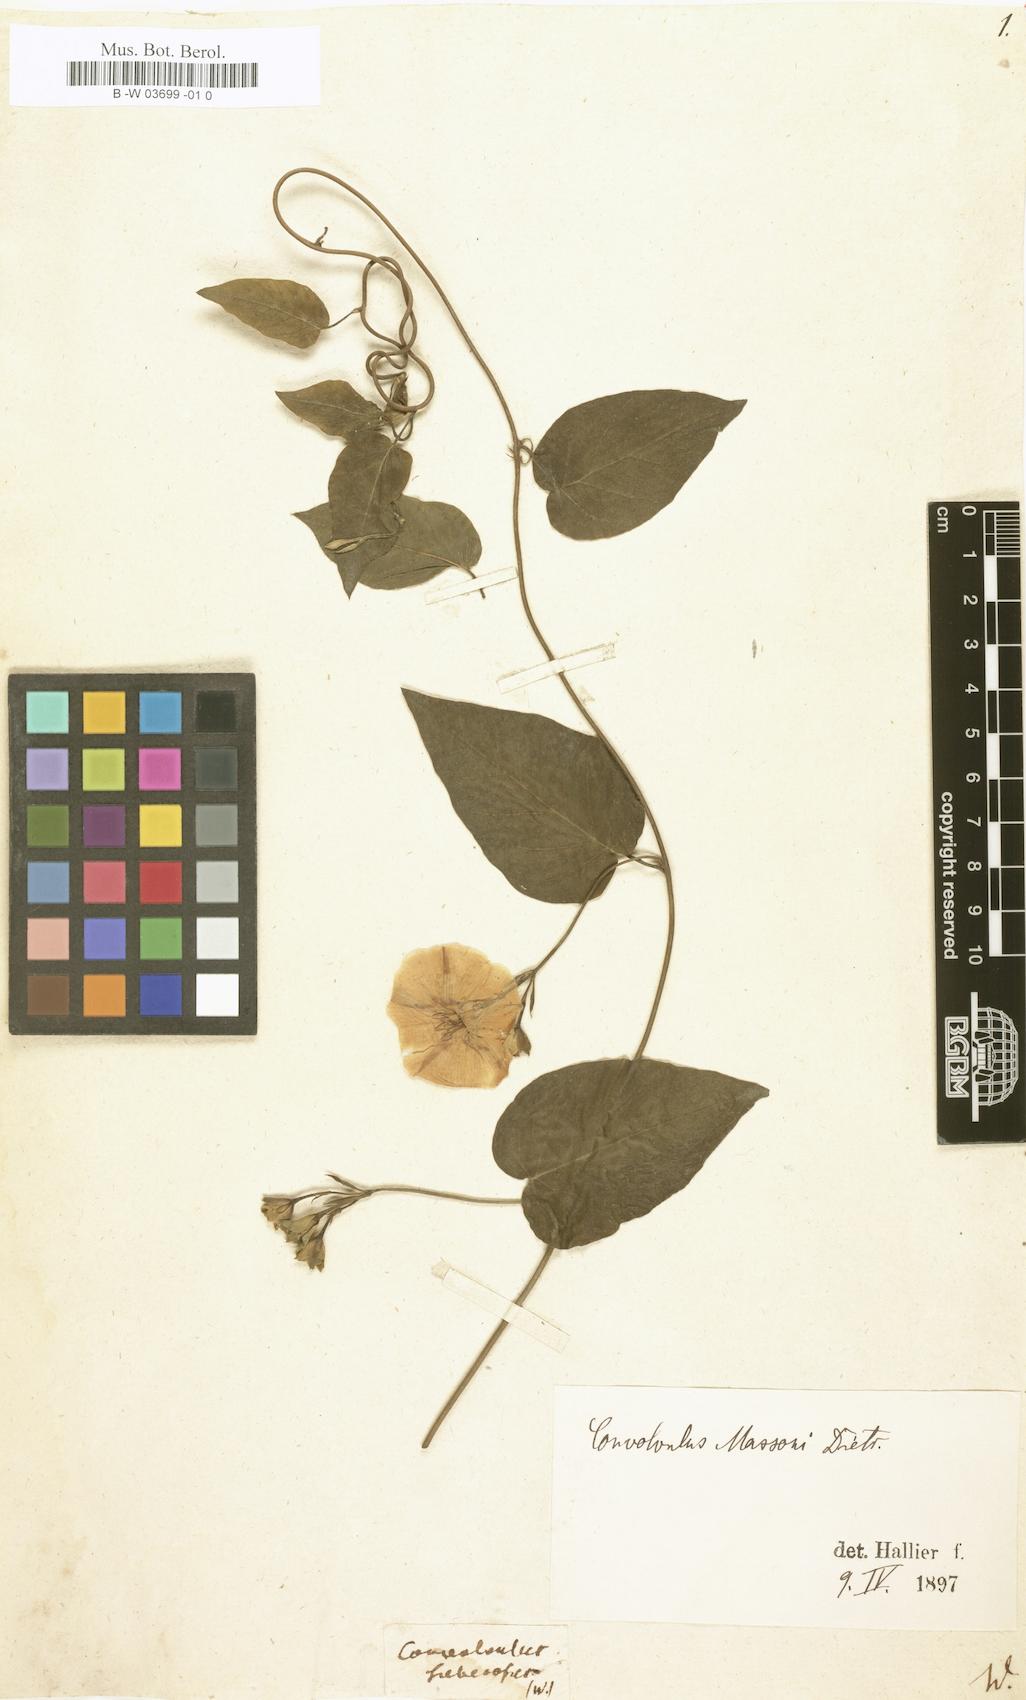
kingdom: Plantae
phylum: Tracheophyta
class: Magnoliopsida
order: Solanales
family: Convolvulaceae
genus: Convolvulus
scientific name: Convolvulus massonii
